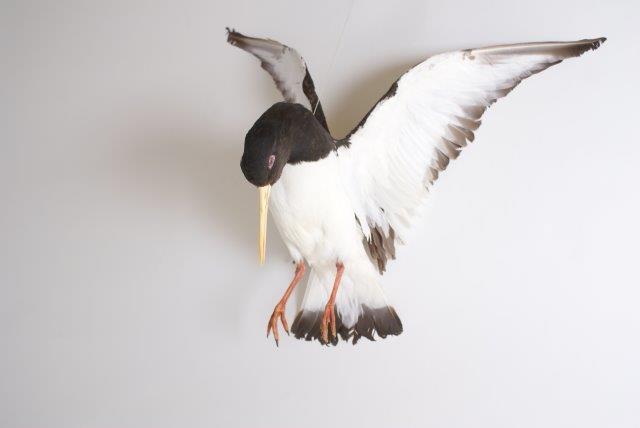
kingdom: Animalia
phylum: Chordata
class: Aves
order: Charadriiformes
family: Haematopodidae
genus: Haematopus
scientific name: Haematopus ostralegus
